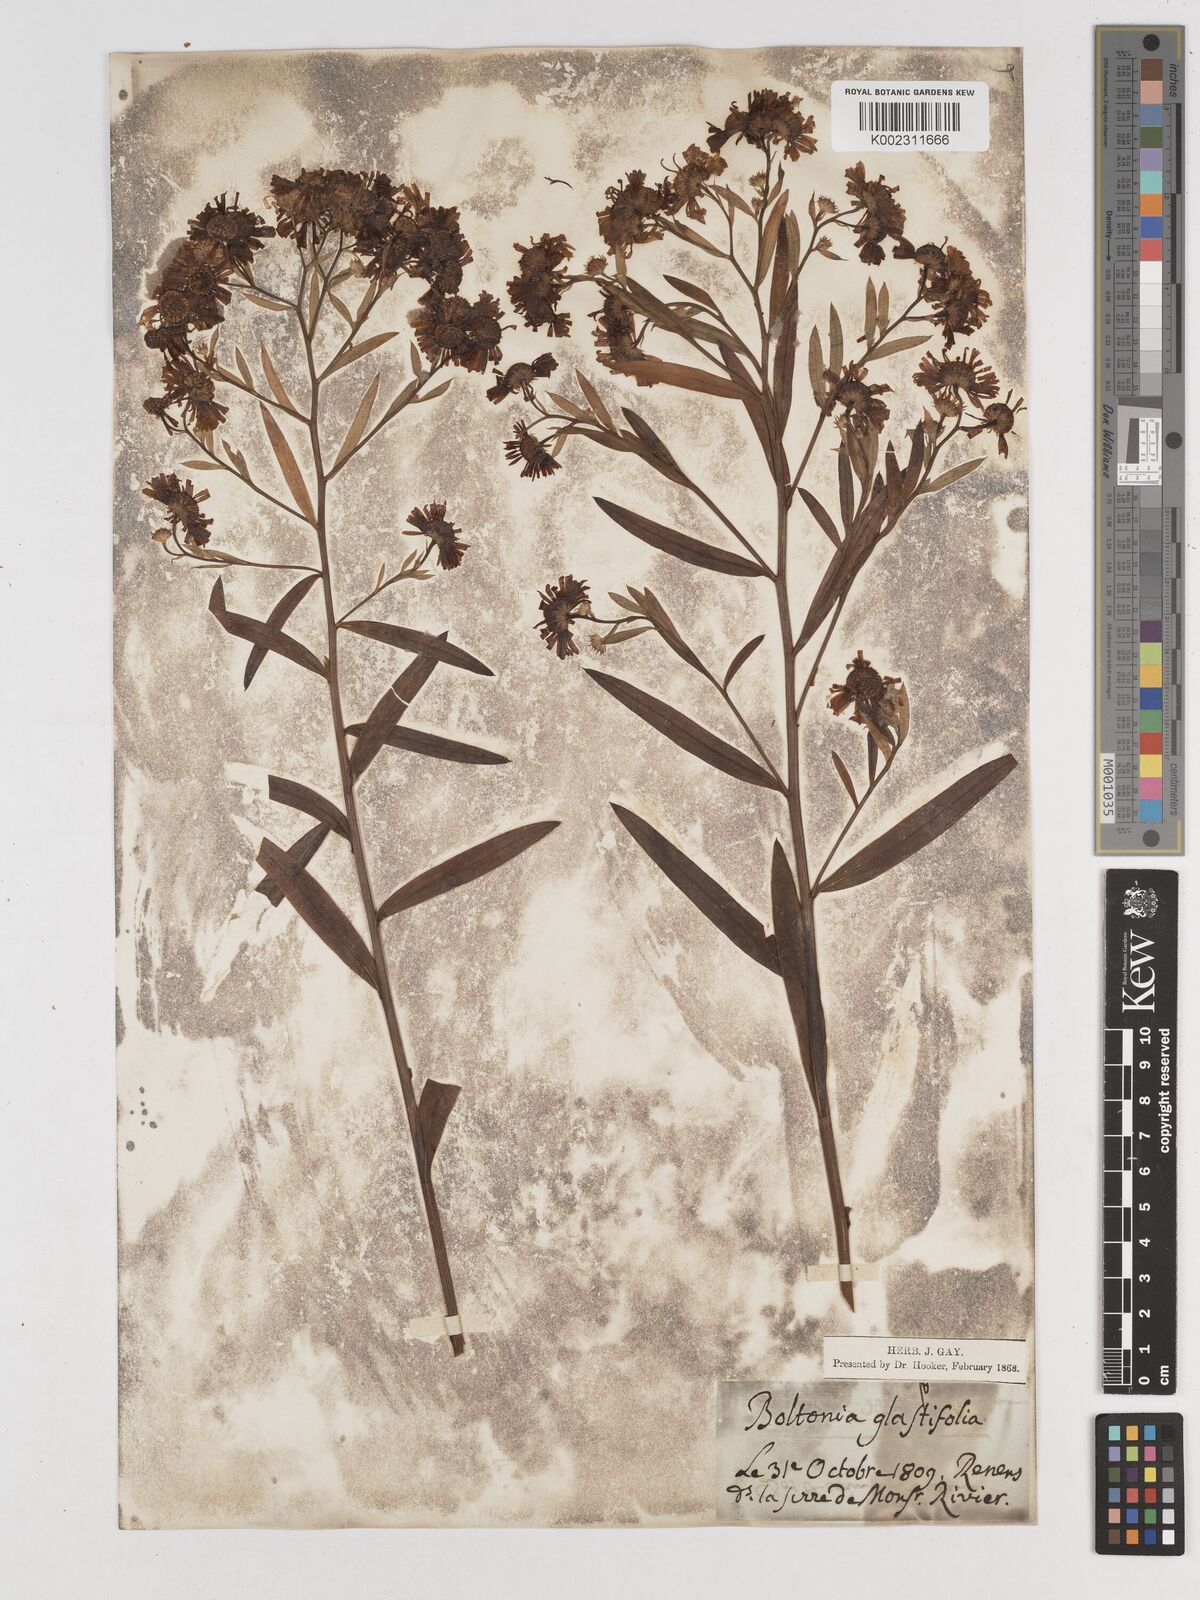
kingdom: Plantae
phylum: Tracheophyta
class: Magnoliopsida
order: Asterales
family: Asteraceae
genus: Boltonia
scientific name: Boltonia glastifolia
